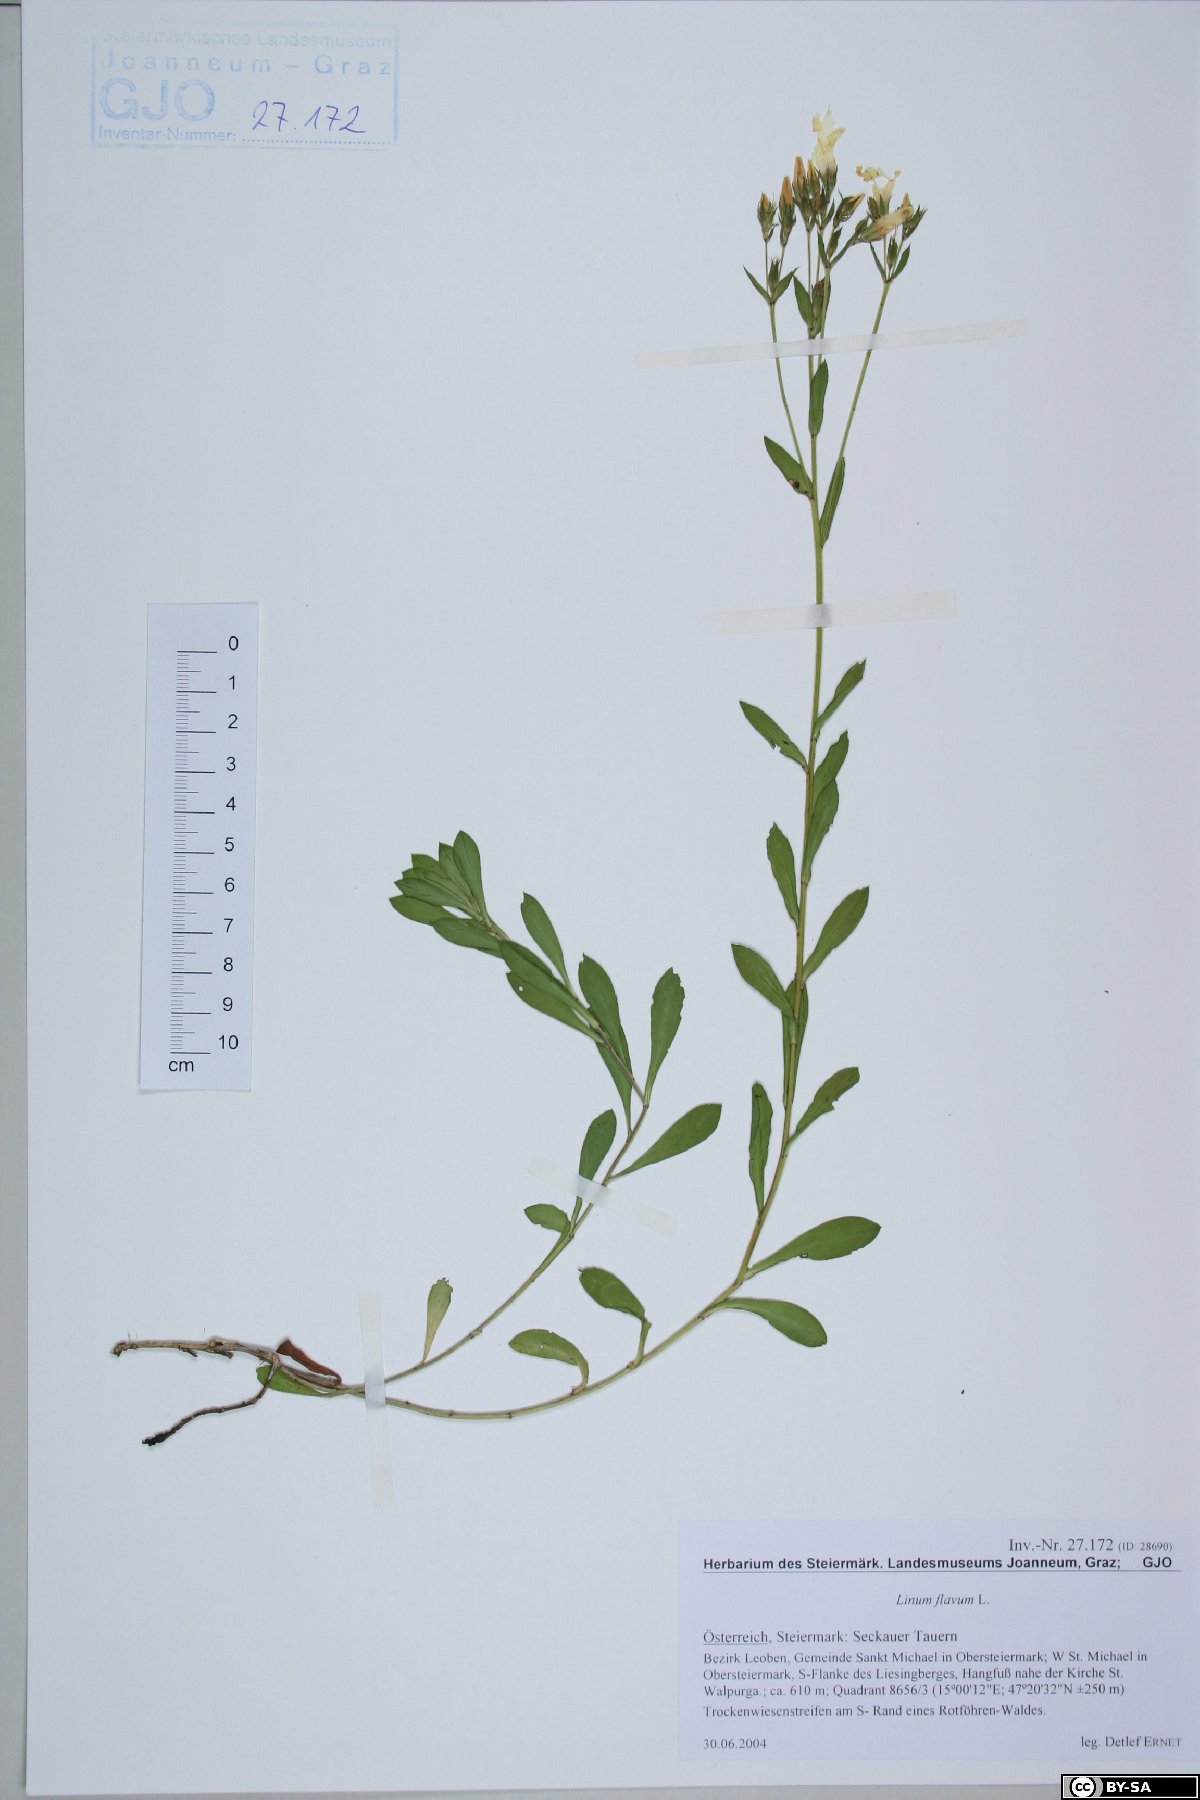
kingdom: Plantae
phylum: Tracheophyta
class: Magnoliopsida
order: Malpighiales
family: Linaceae
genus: Linum
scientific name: Linum flavum
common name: Yellow flax
